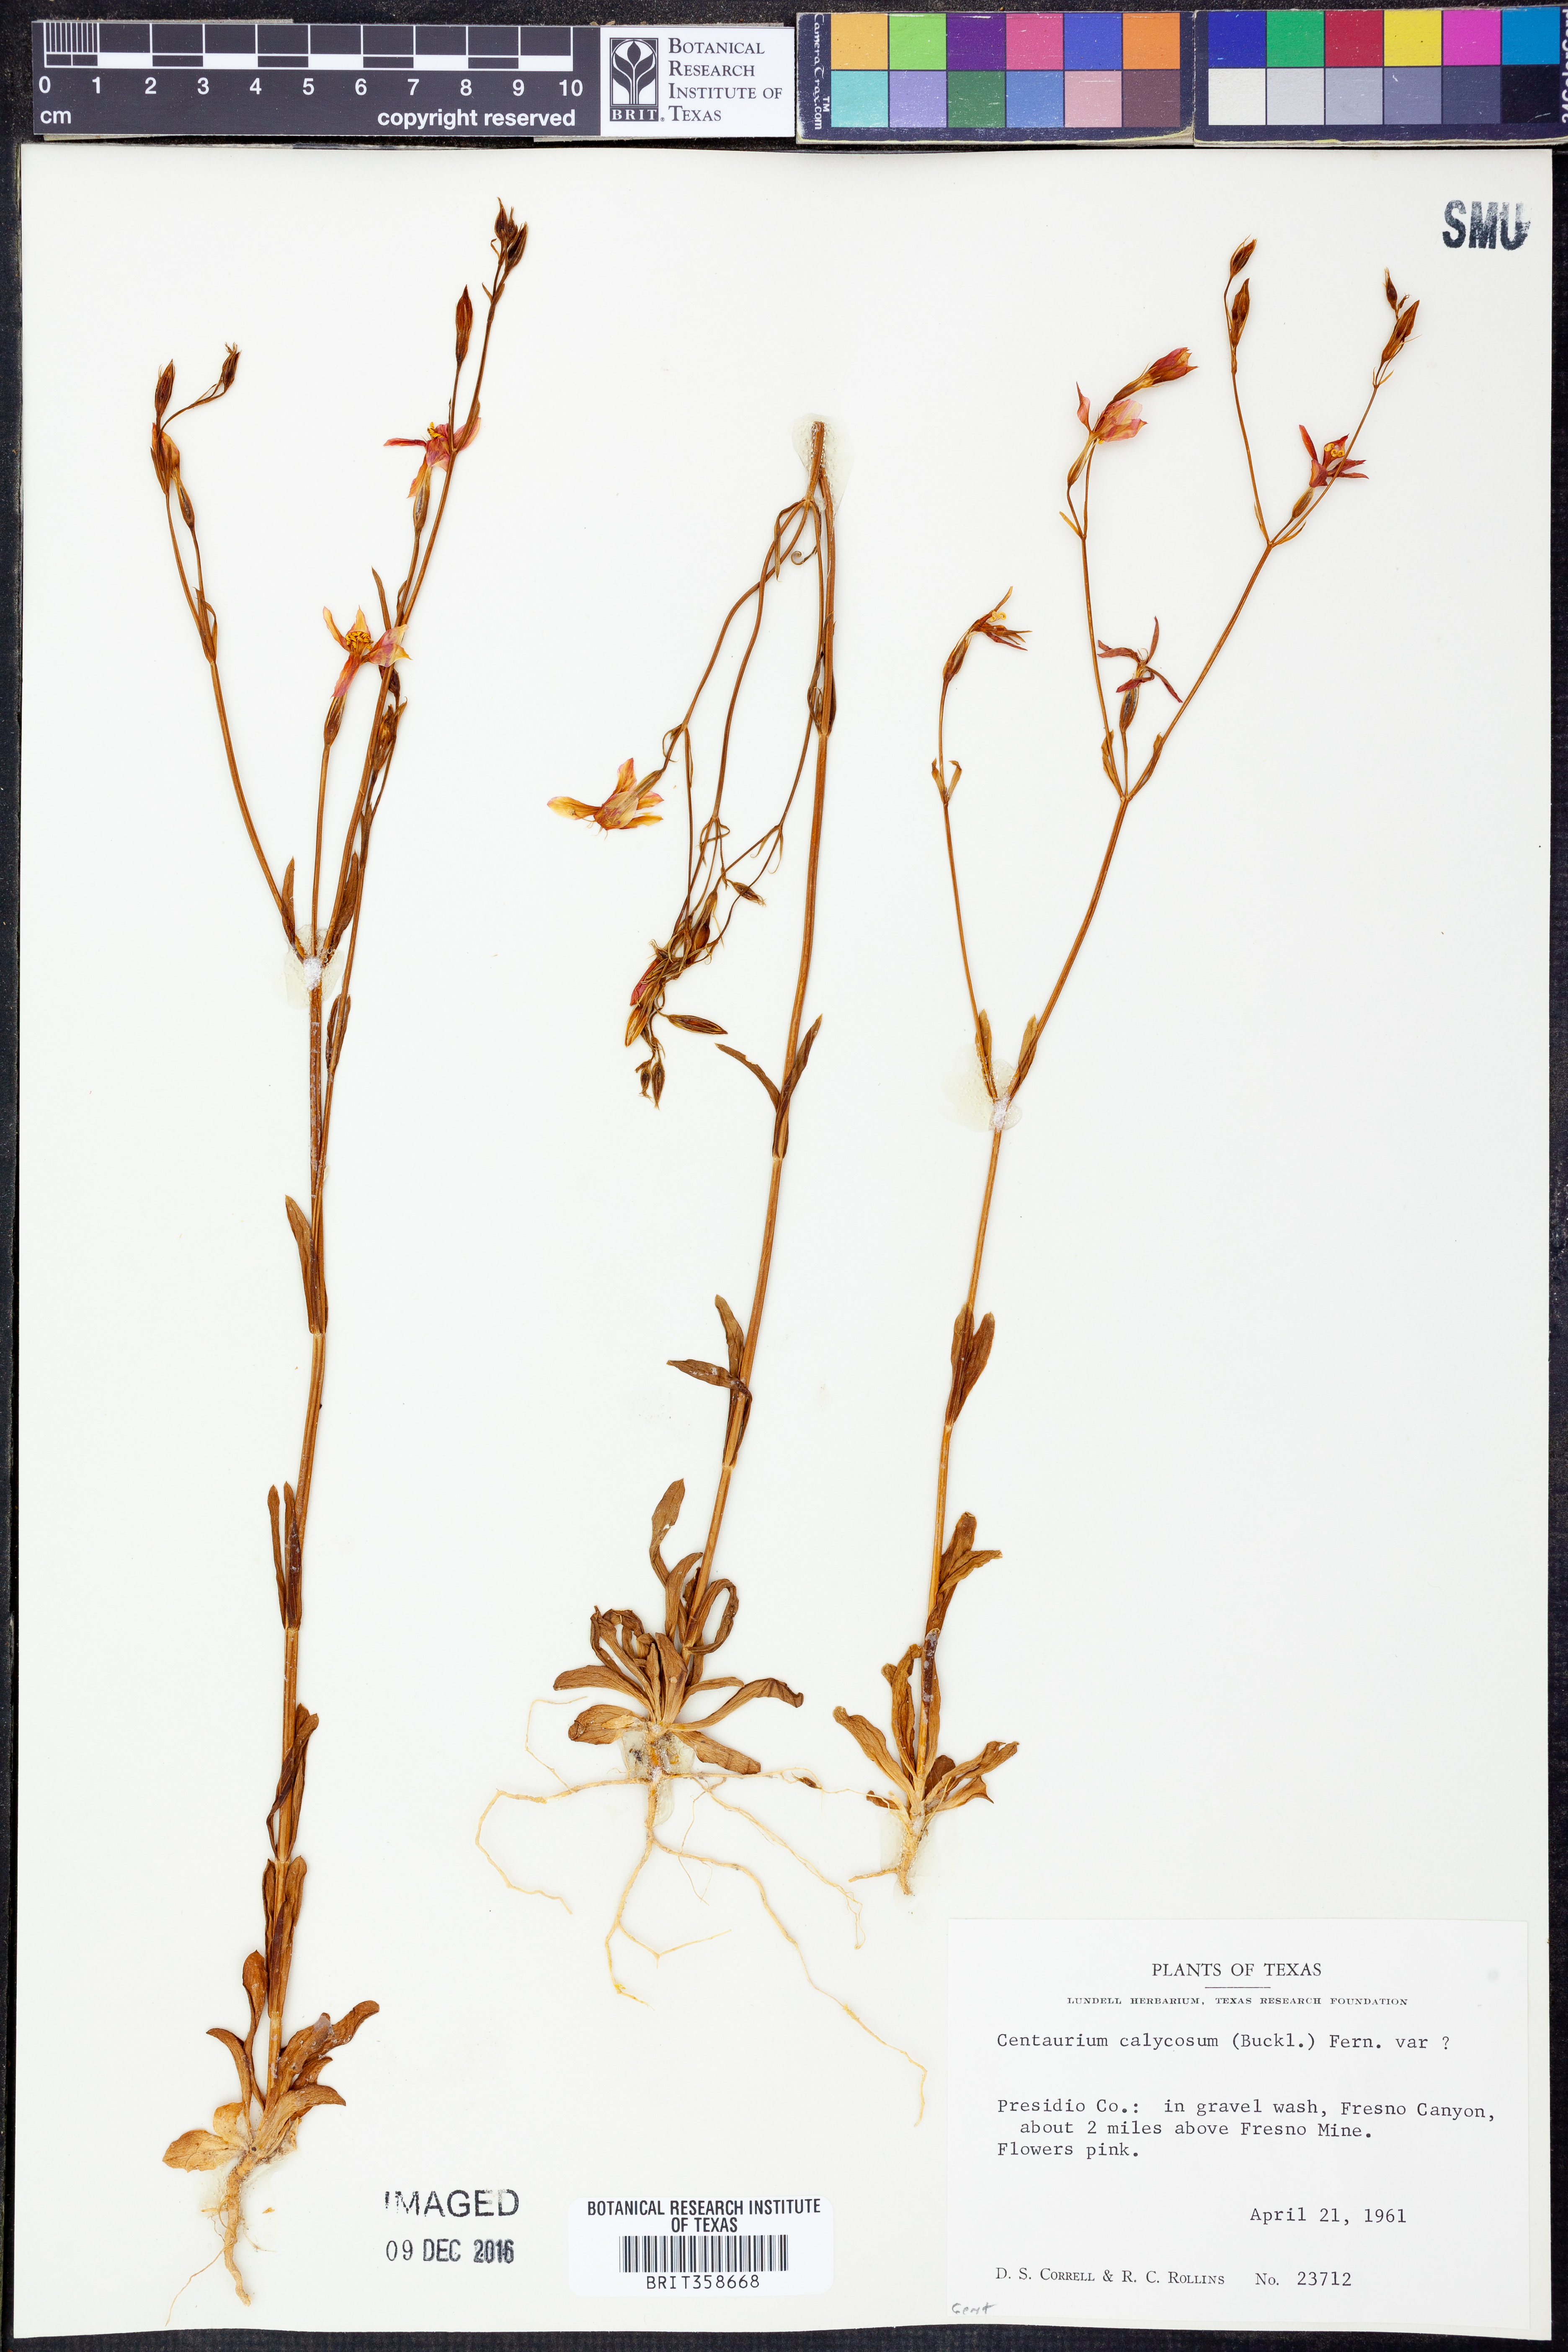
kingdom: Plantae
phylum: Tracheophyta
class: Magnoliopsida
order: Gentianales
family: Gentianaceae
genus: Zeltnera
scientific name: Zeltnera calycosa
